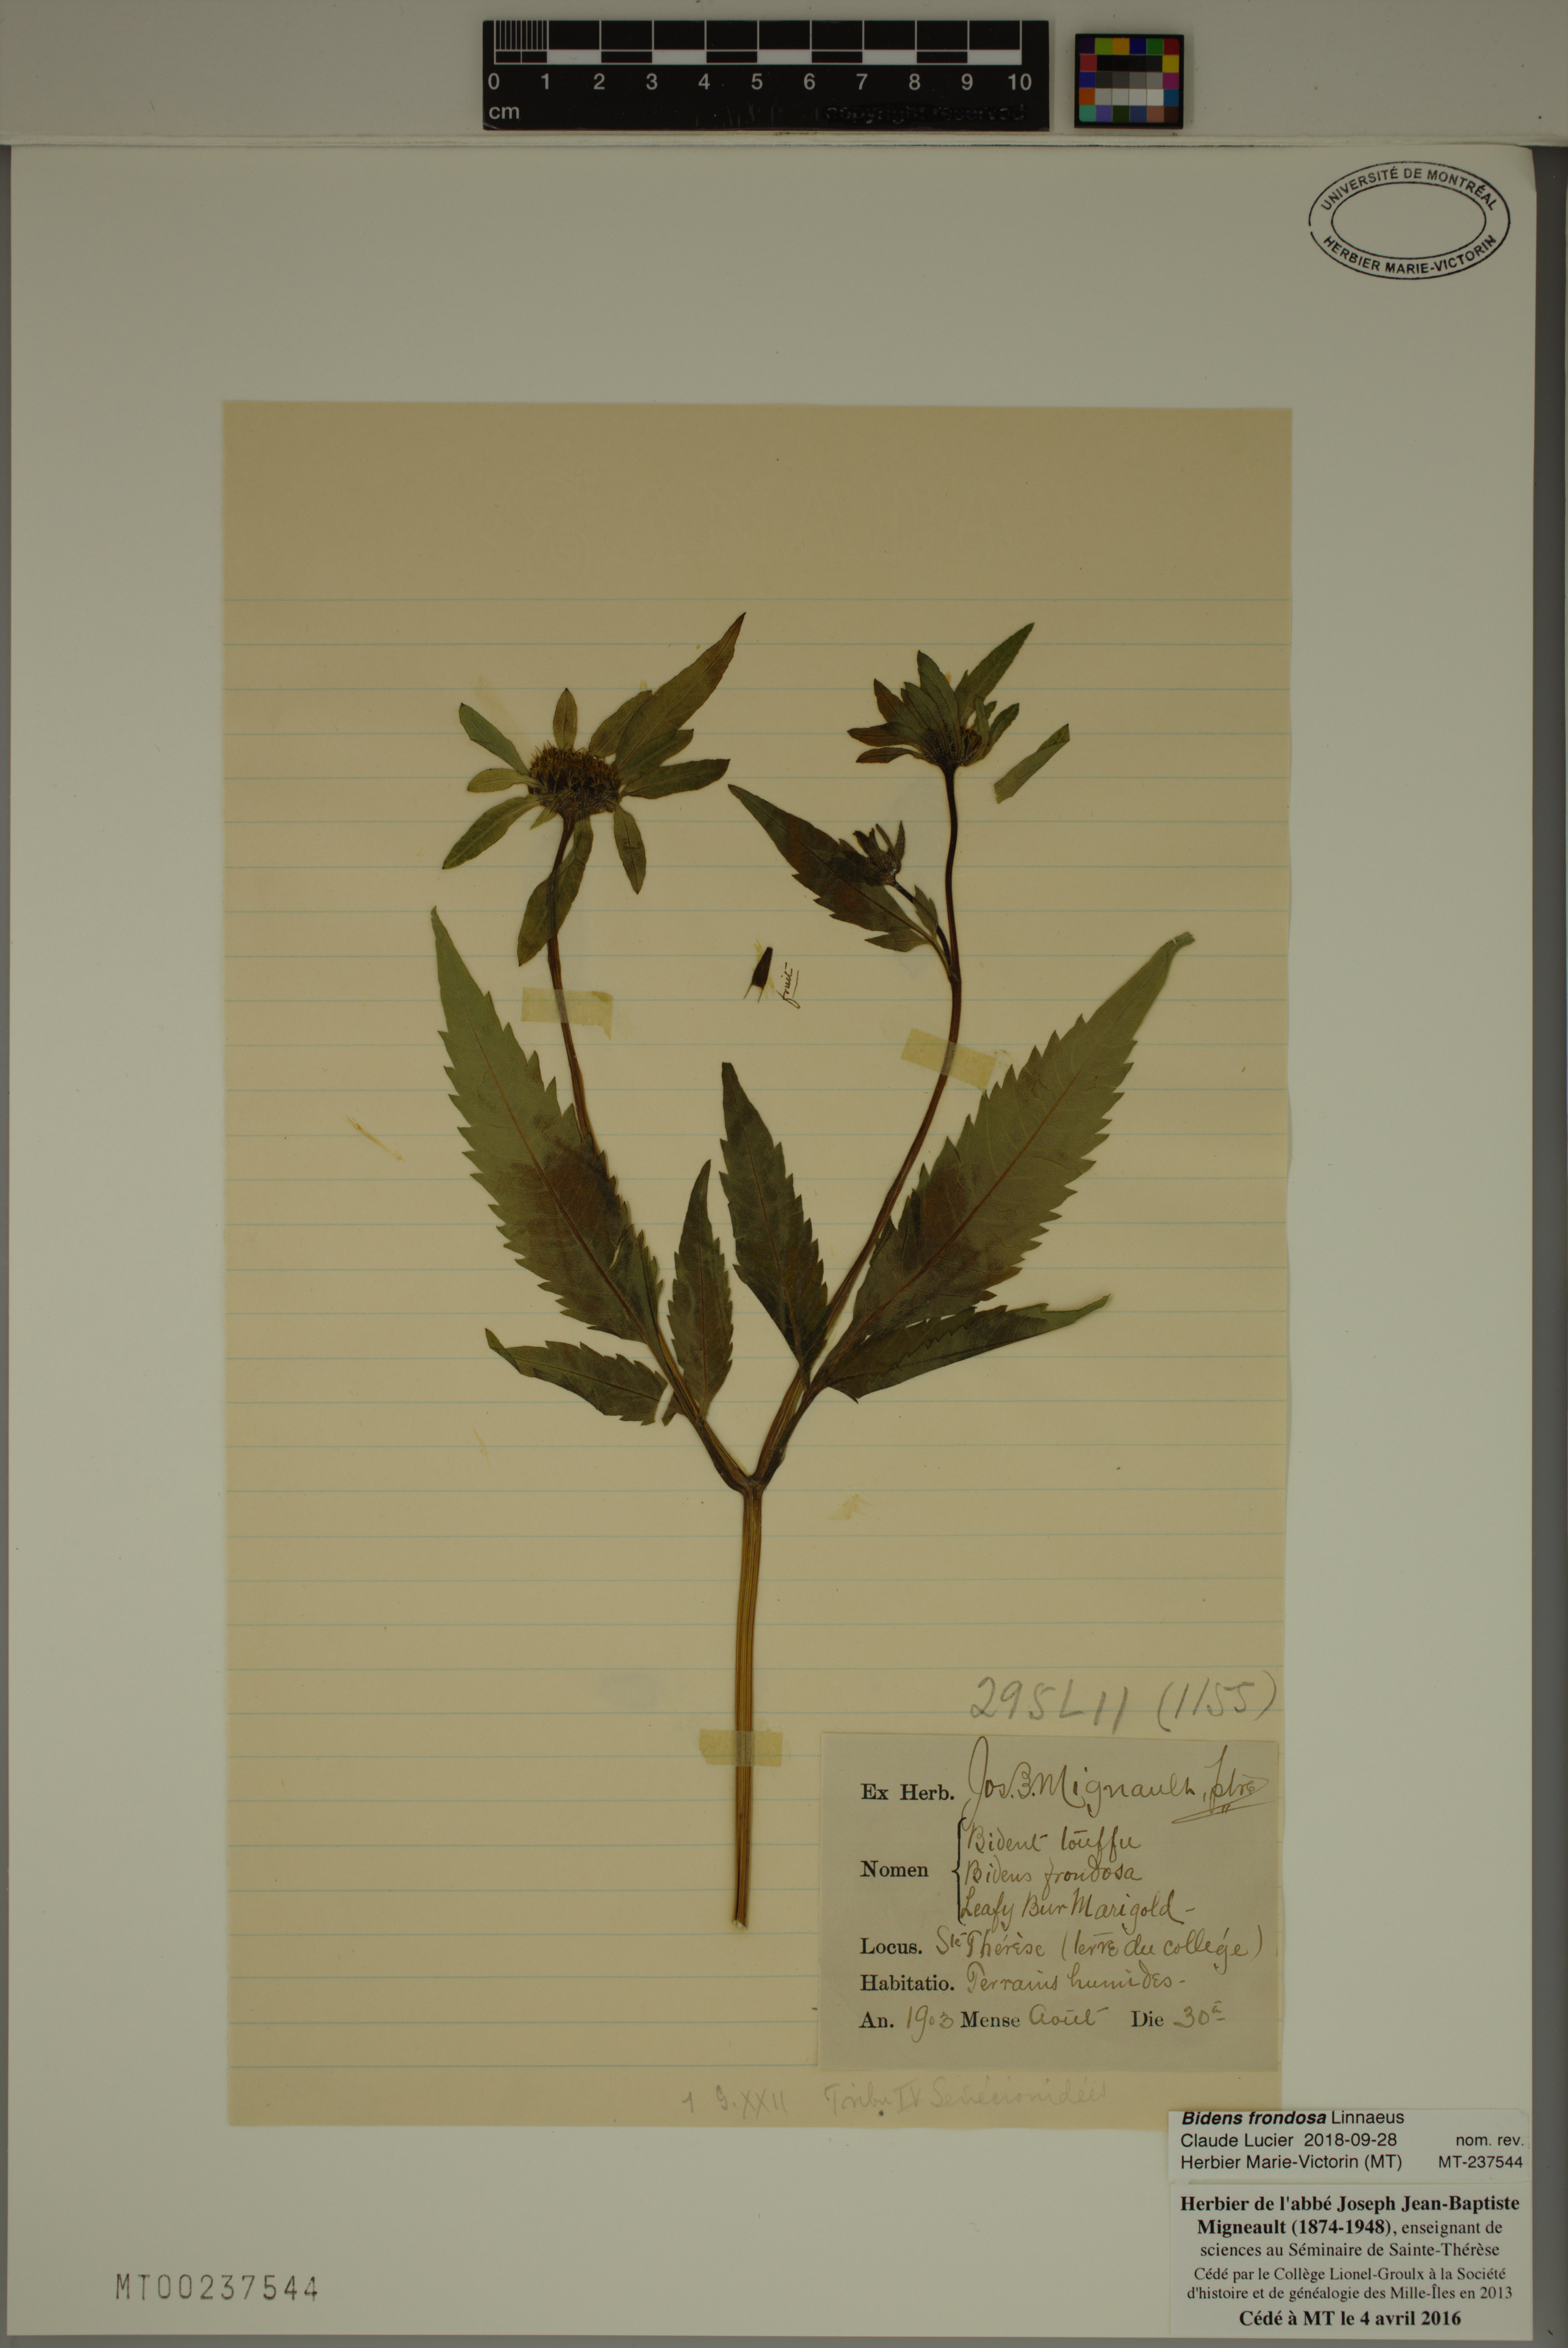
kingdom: Plantae
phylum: Tracheophyta
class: Magnoliopsida
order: Asterales
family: Asteraceae
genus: Bidens
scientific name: Bidens frondosa
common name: Beggarticks
